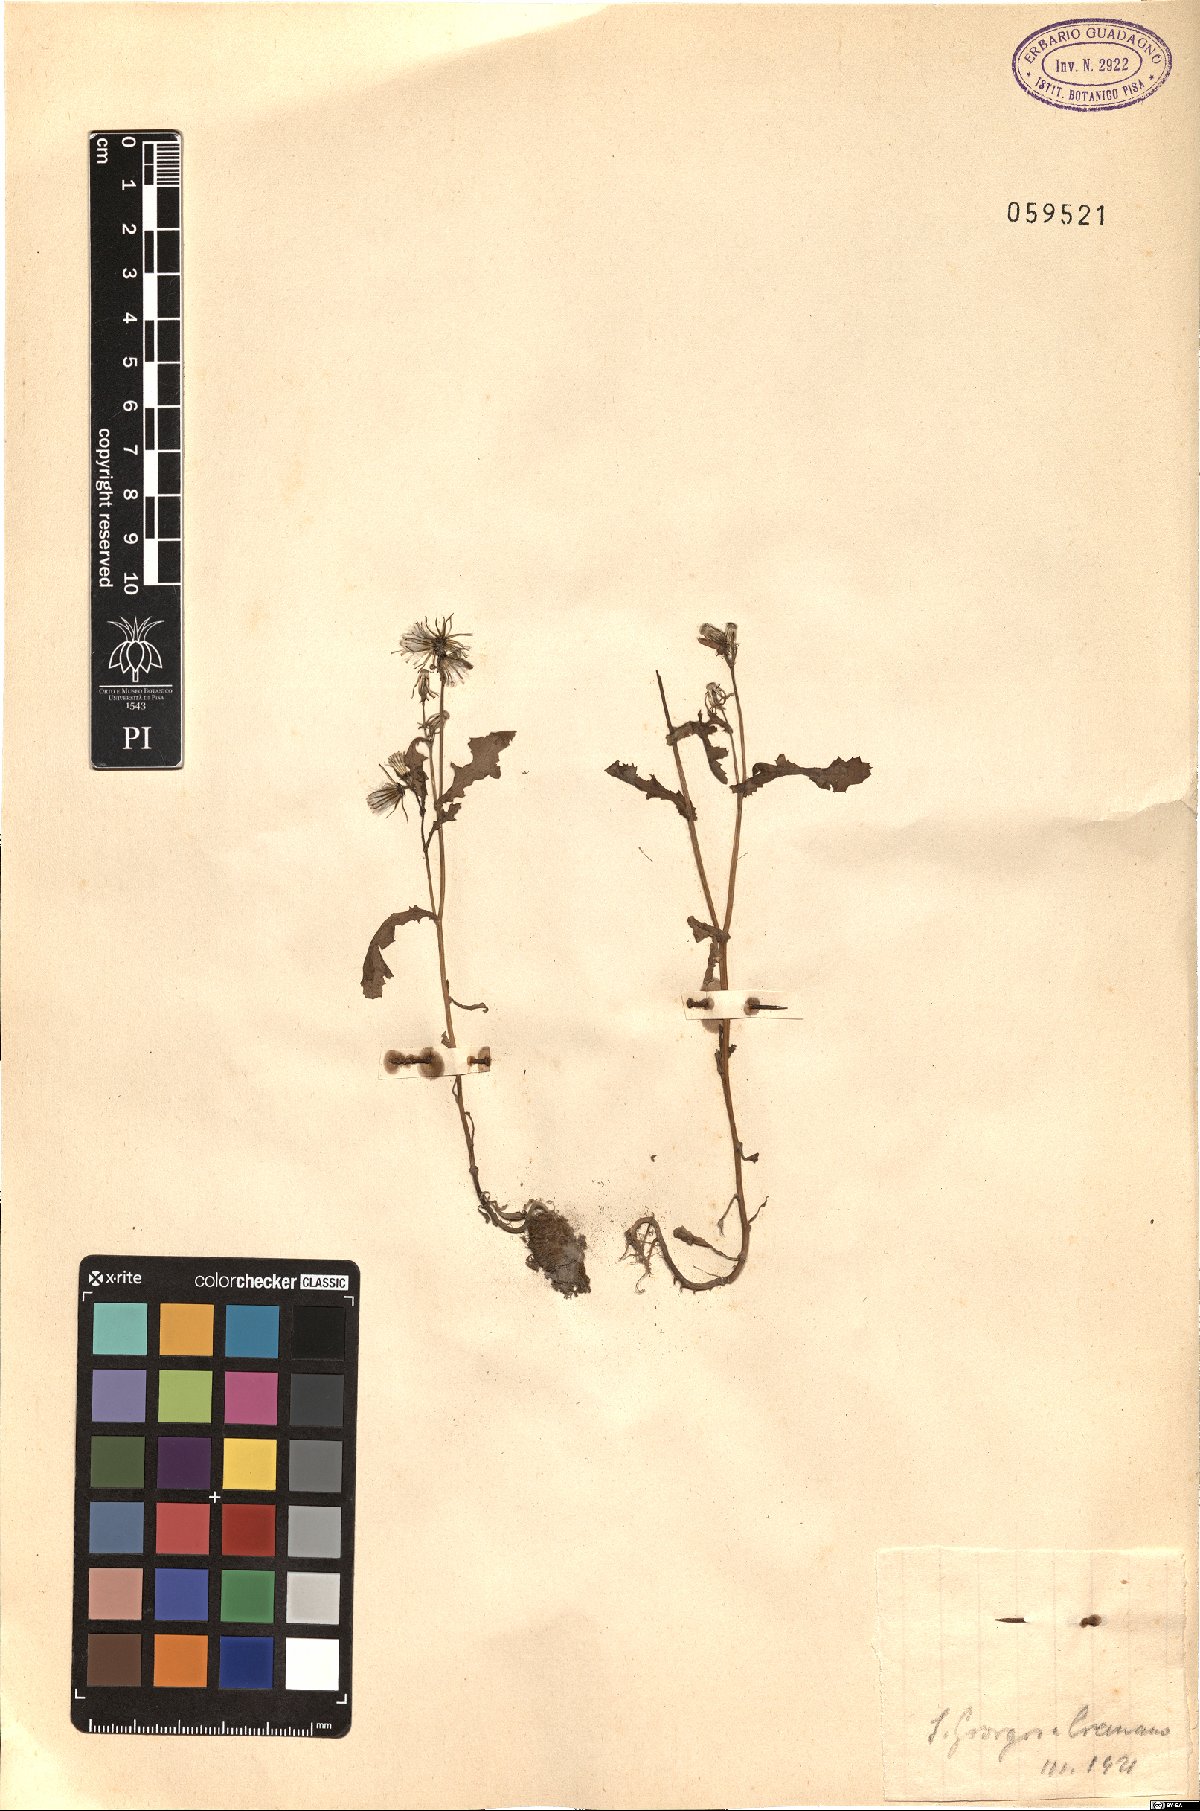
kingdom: Plantae
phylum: Tracheophyta
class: Magnoliopsida
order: Asterales
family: Asteraceae
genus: Senecio
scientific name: Senecio rupestris
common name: Rock ragwort
